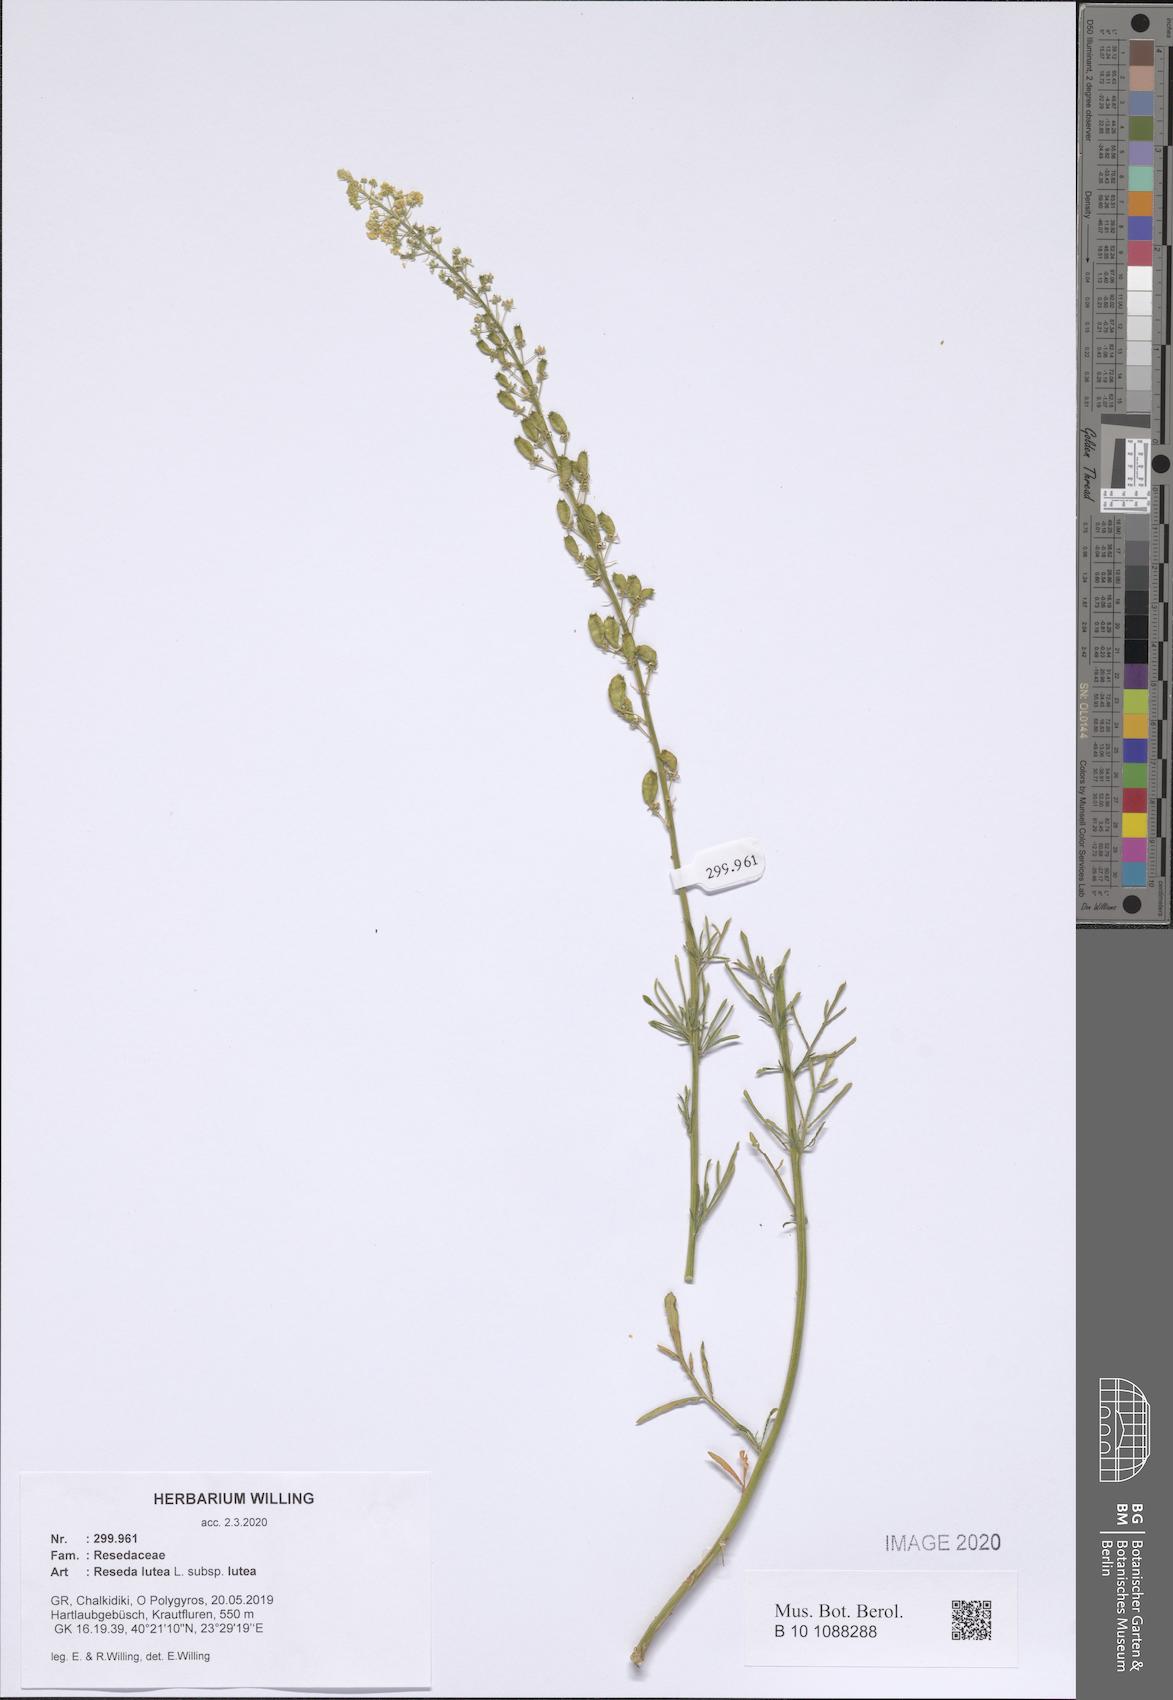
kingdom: Plantae
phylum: Tracheophyta
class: Magnoliopsida
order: Brassicales
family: Resedaceae
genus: Reseda
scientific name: Reseda lutea
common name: Wild mignonette
